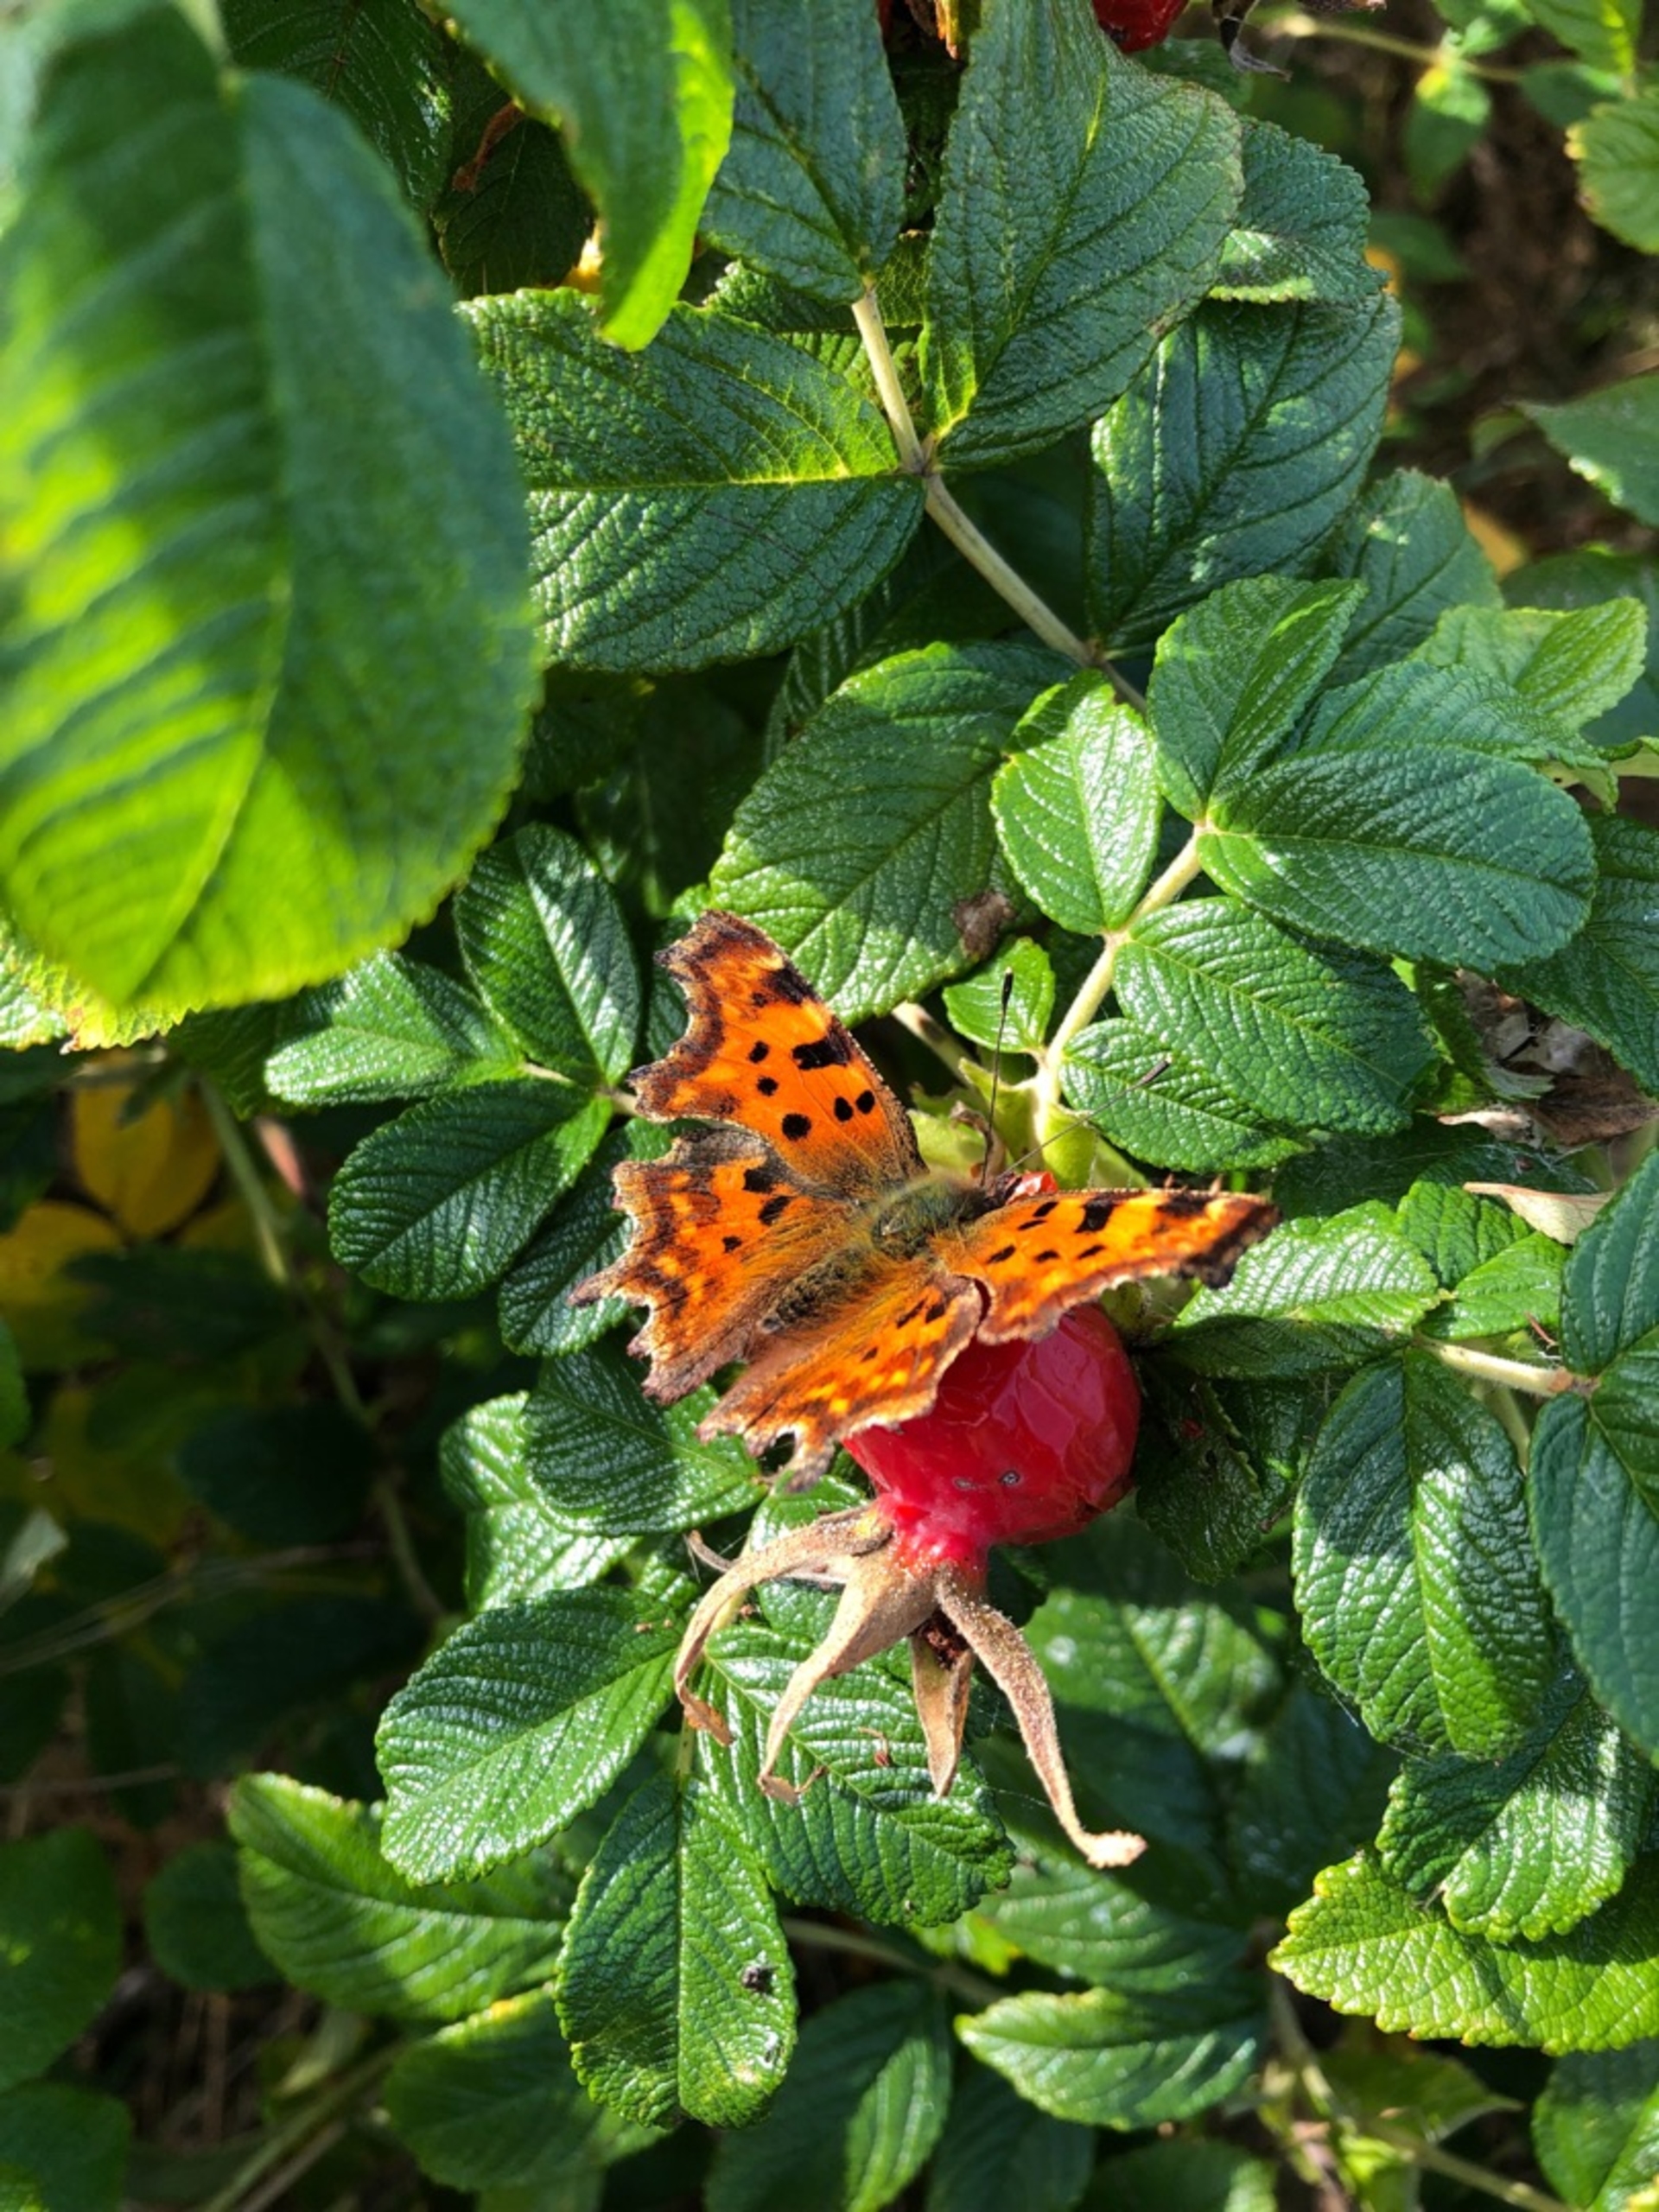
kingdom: Animalia
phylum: Arthropoda
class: Insecta
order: Lepidoptera
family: Nymphalidae
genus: Polygonia
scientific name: Polygonia c-album
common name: Det hvide C
